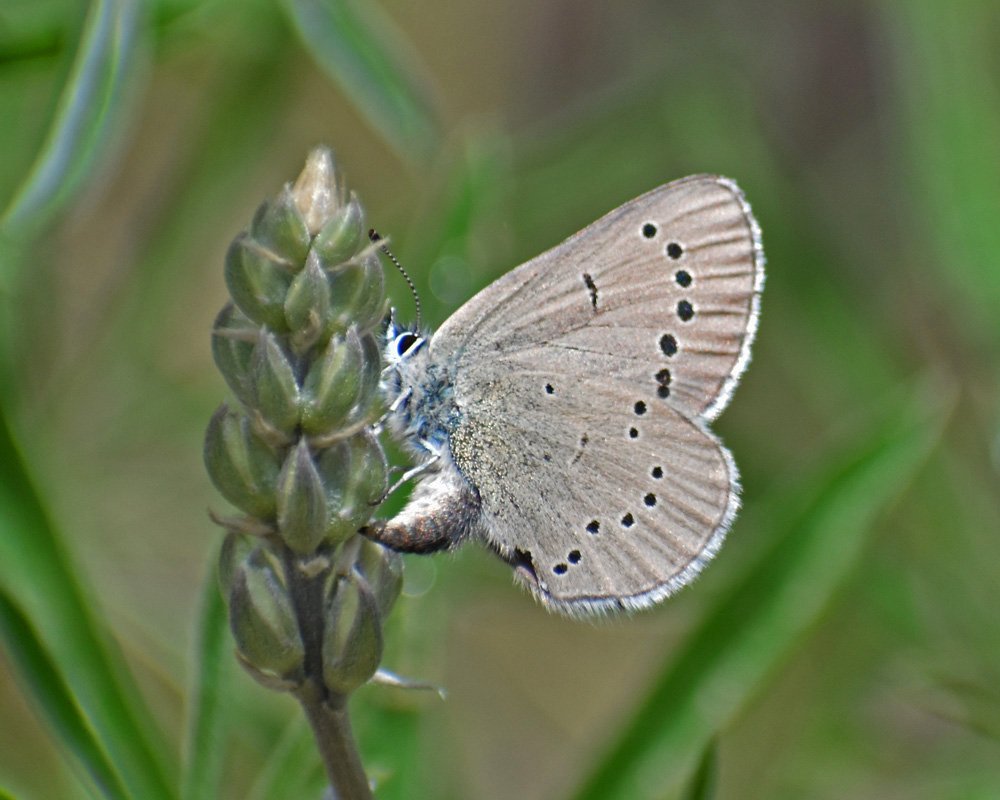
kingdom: Animalia
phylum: Arthropoda
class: Insecta
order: Lepidoptera
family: Lycaenidae
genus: Glaucopsyche
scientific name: Glaucopsyche lygdamus
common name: Silvery Blue
